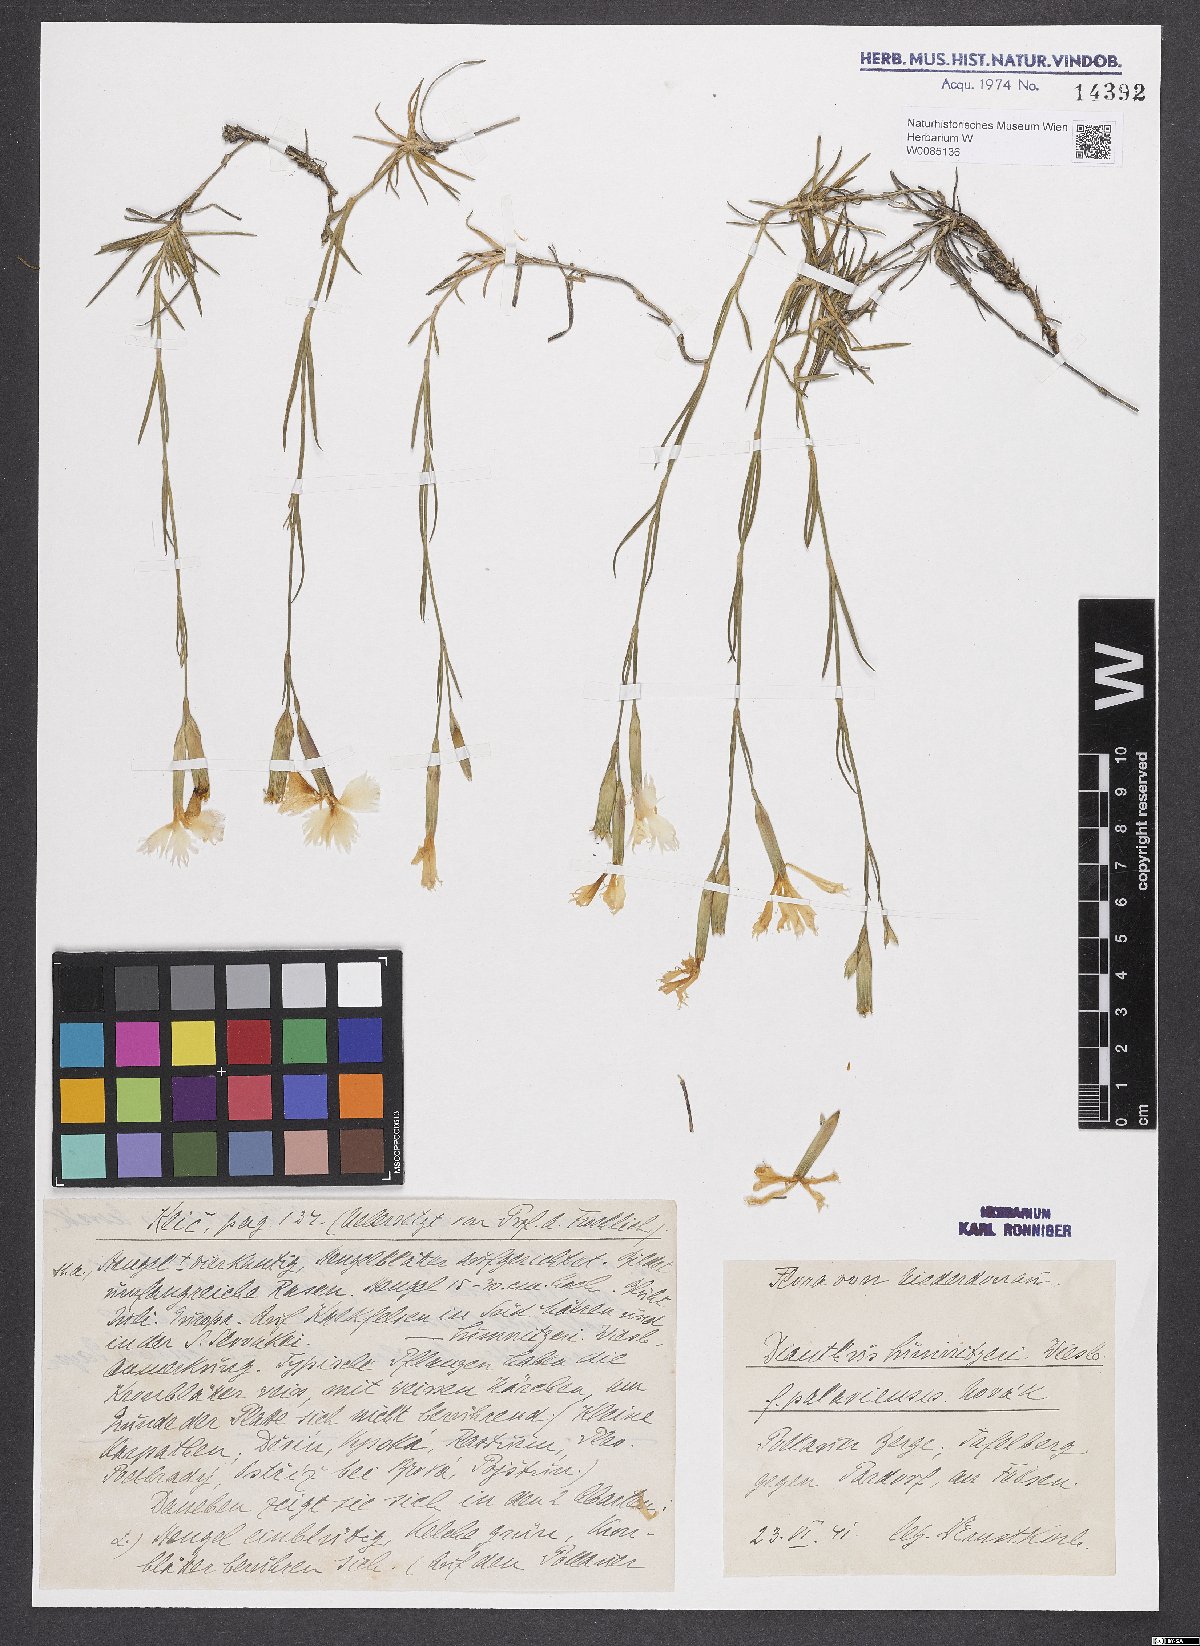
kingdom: Plantae
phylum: Tracheophyta
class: Magnoliopsida
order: Caryophyllales
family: Caryophyllaceae
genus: Dianthus
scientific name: Dianthus praecox
